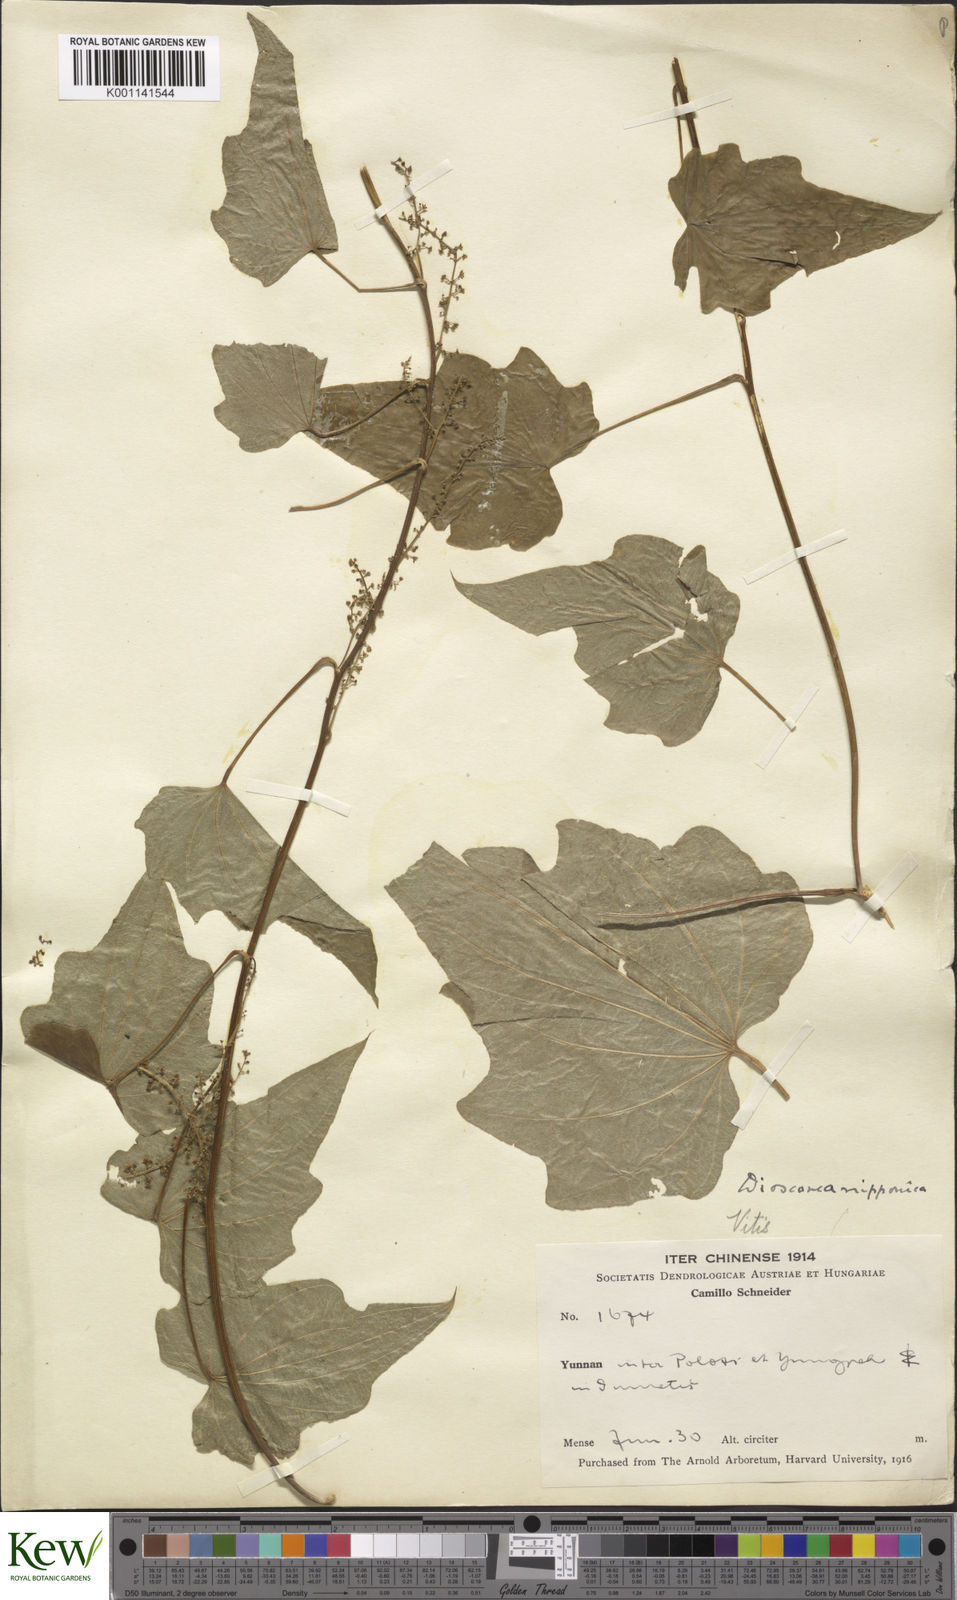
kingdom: Plantae
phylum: Tracheophyta
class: Liliopsida
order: Dioscoreales
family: Dioscoreaceae
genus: Dioscorea
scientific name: Dioscorea nipponica
